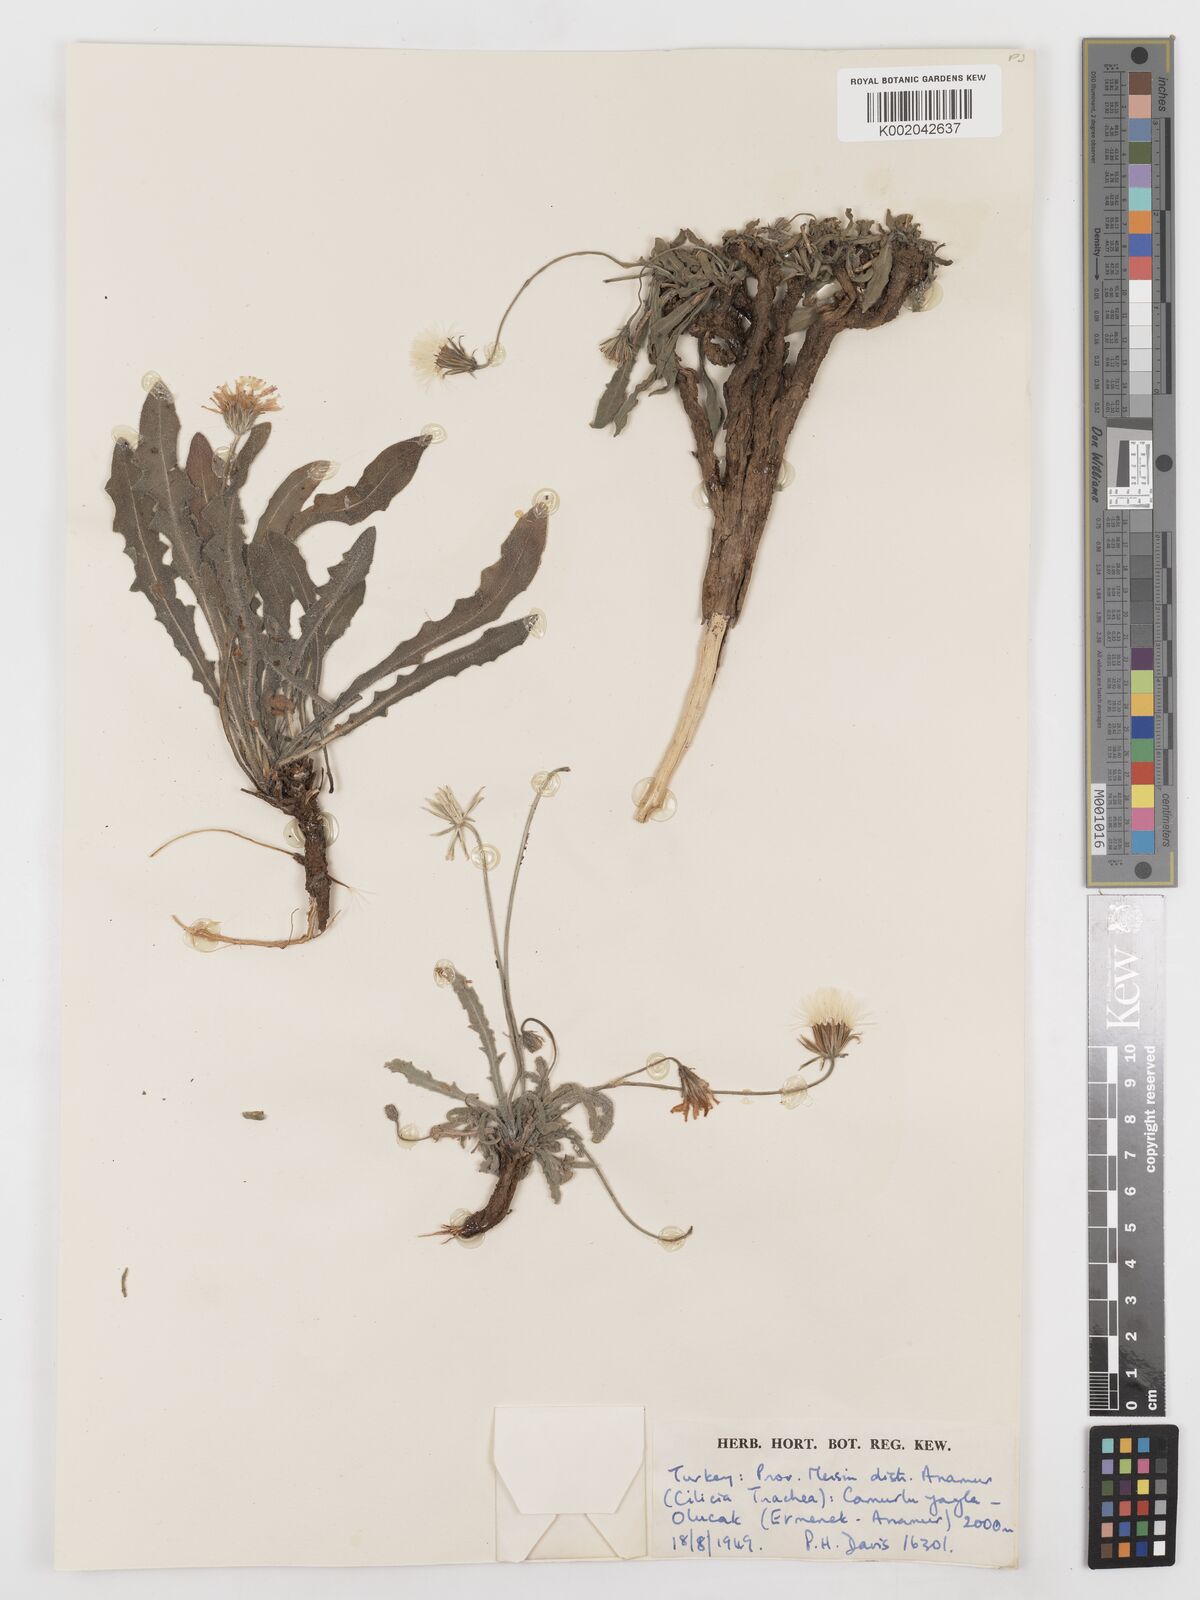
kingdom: Plantae
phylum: Tracheophyta
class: Magnoliopsida
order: Asterales
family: Asteraceae
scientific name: Asteraceae
